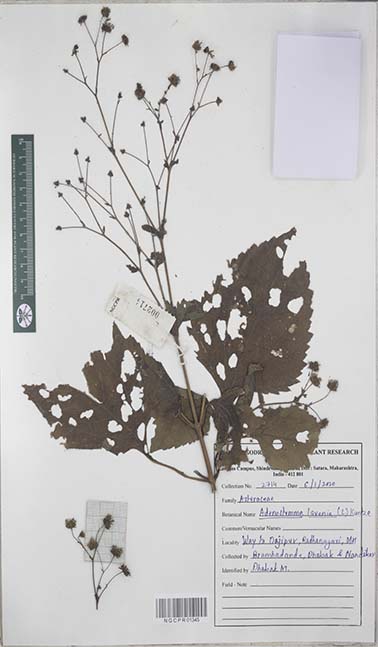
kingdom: Plantae
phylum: Tracheophyta
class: Magnoliopsida
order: Asterales
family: Asteraceae
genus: Adenostemma
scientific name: Adenostemma lavenia
